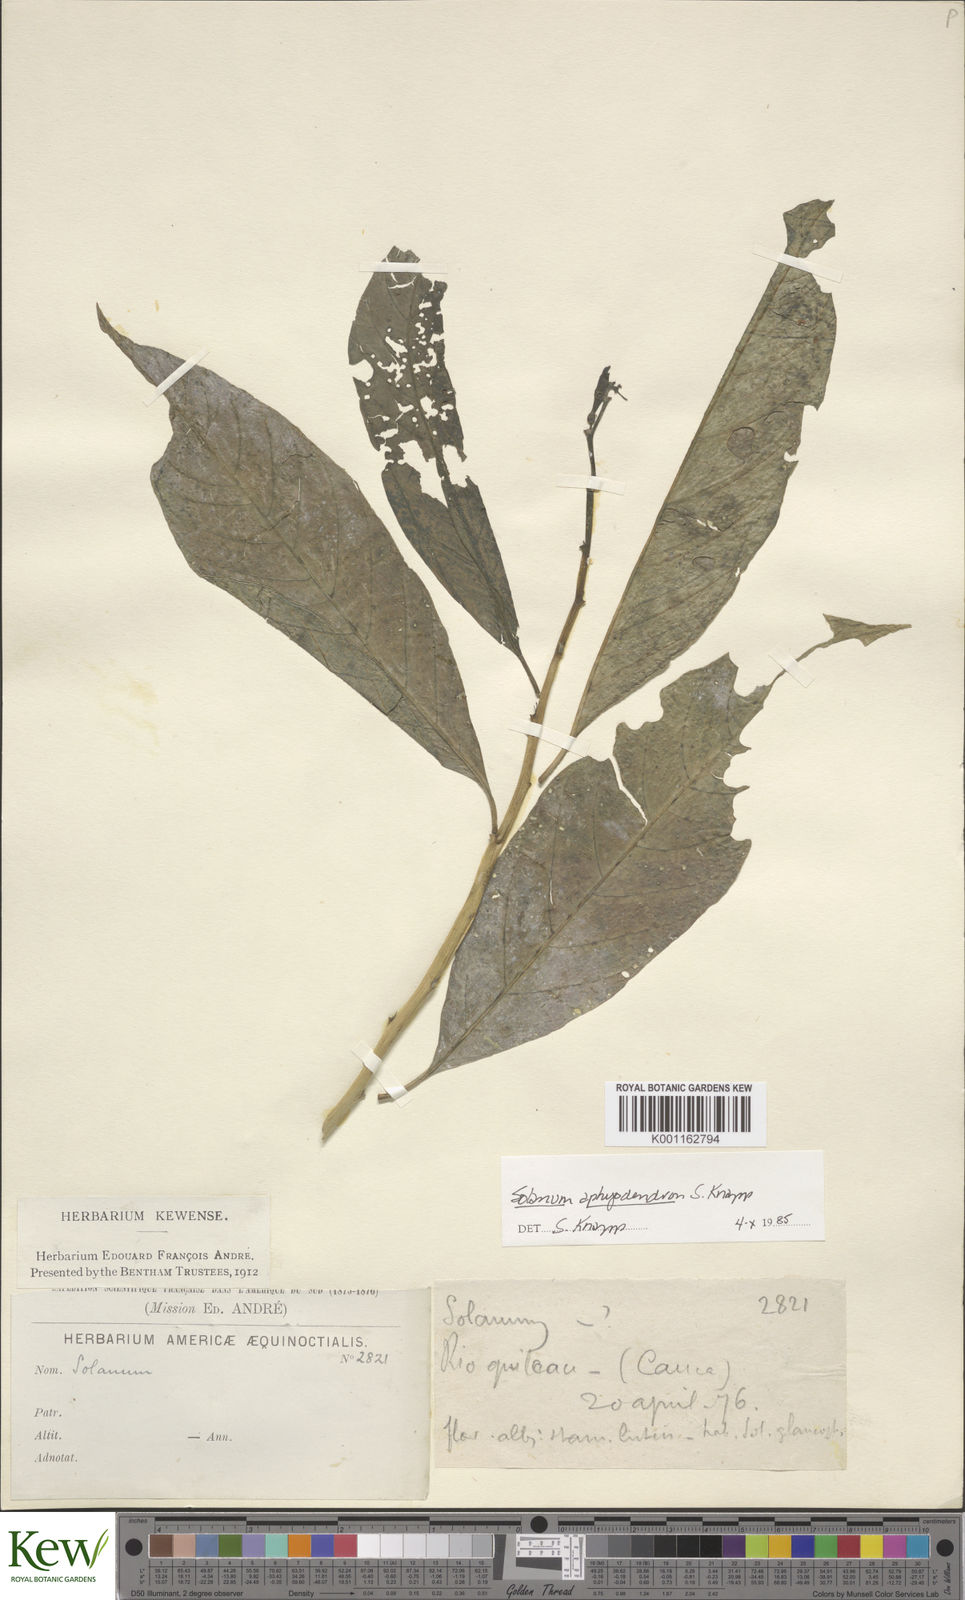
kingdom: Plantae
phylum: Tracheophyta
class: Magnoliopsida
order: Solanales
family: Solanaceae
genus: Solanum
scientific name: Solanum aphyodendron
